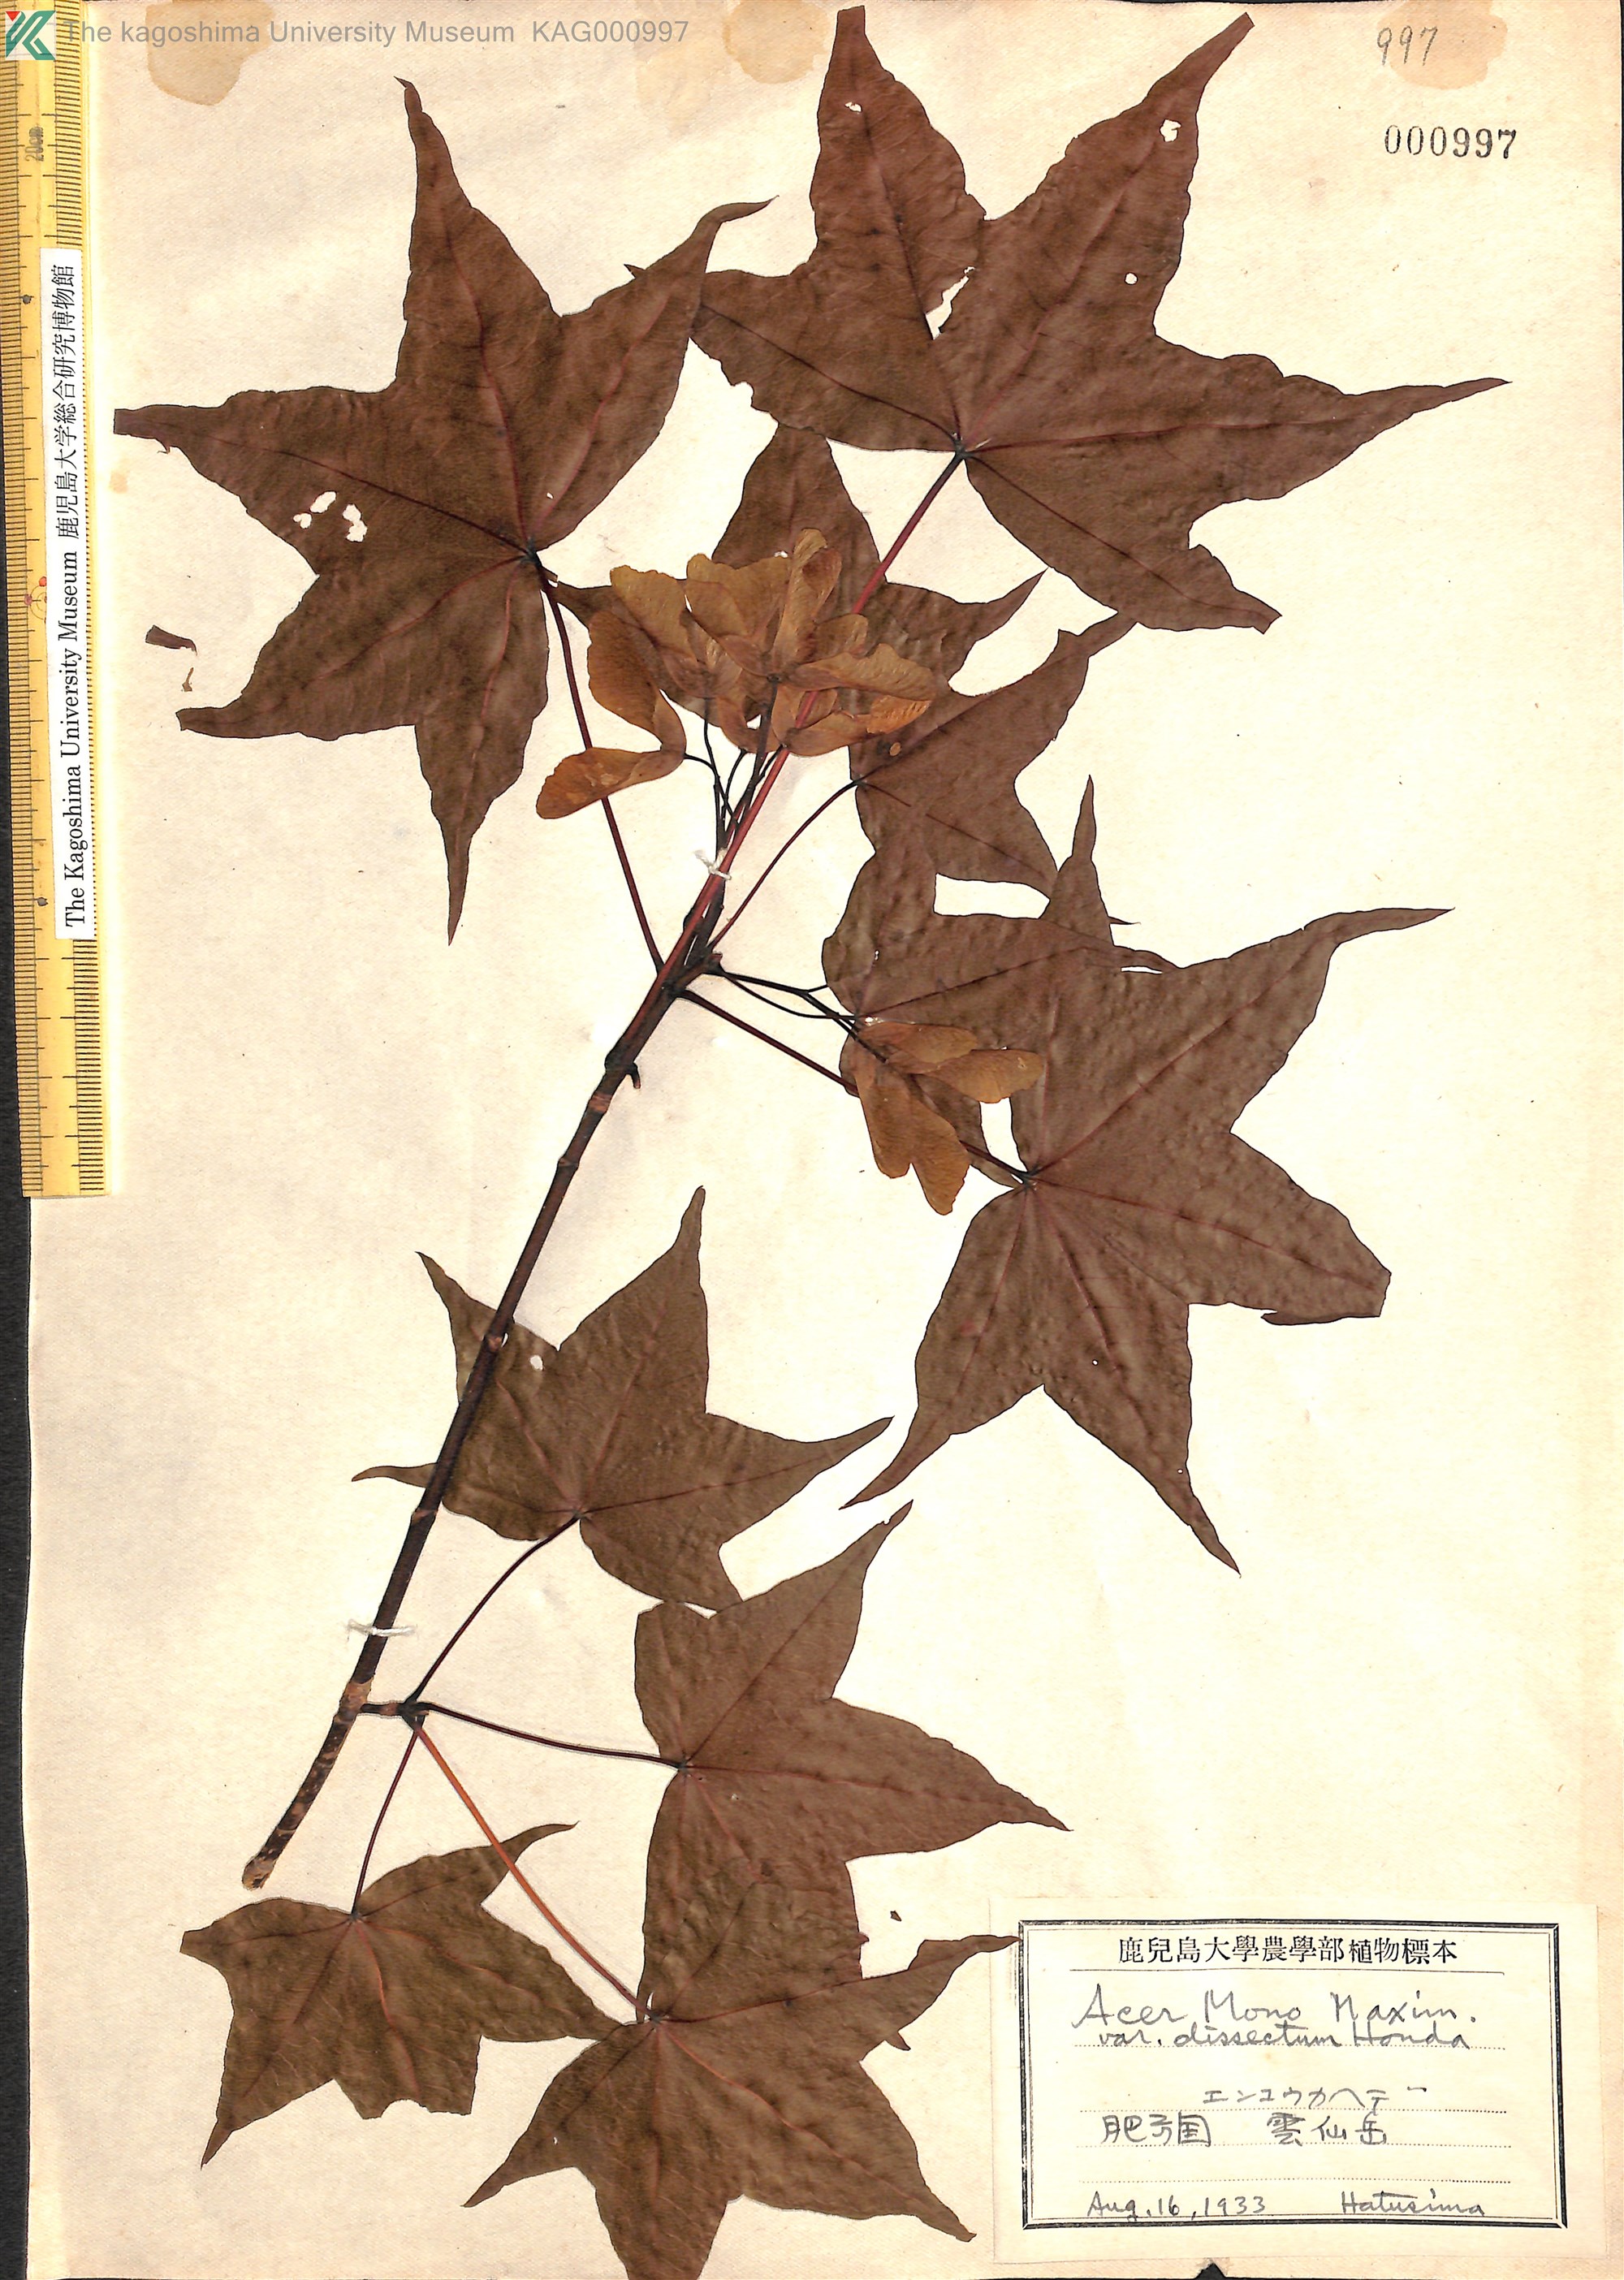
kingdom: Plantae
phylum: Tracheophyta
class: Magnoliopsida
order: Sapindales
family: Sapindaceae
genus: Acer
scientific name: Acer pictum
